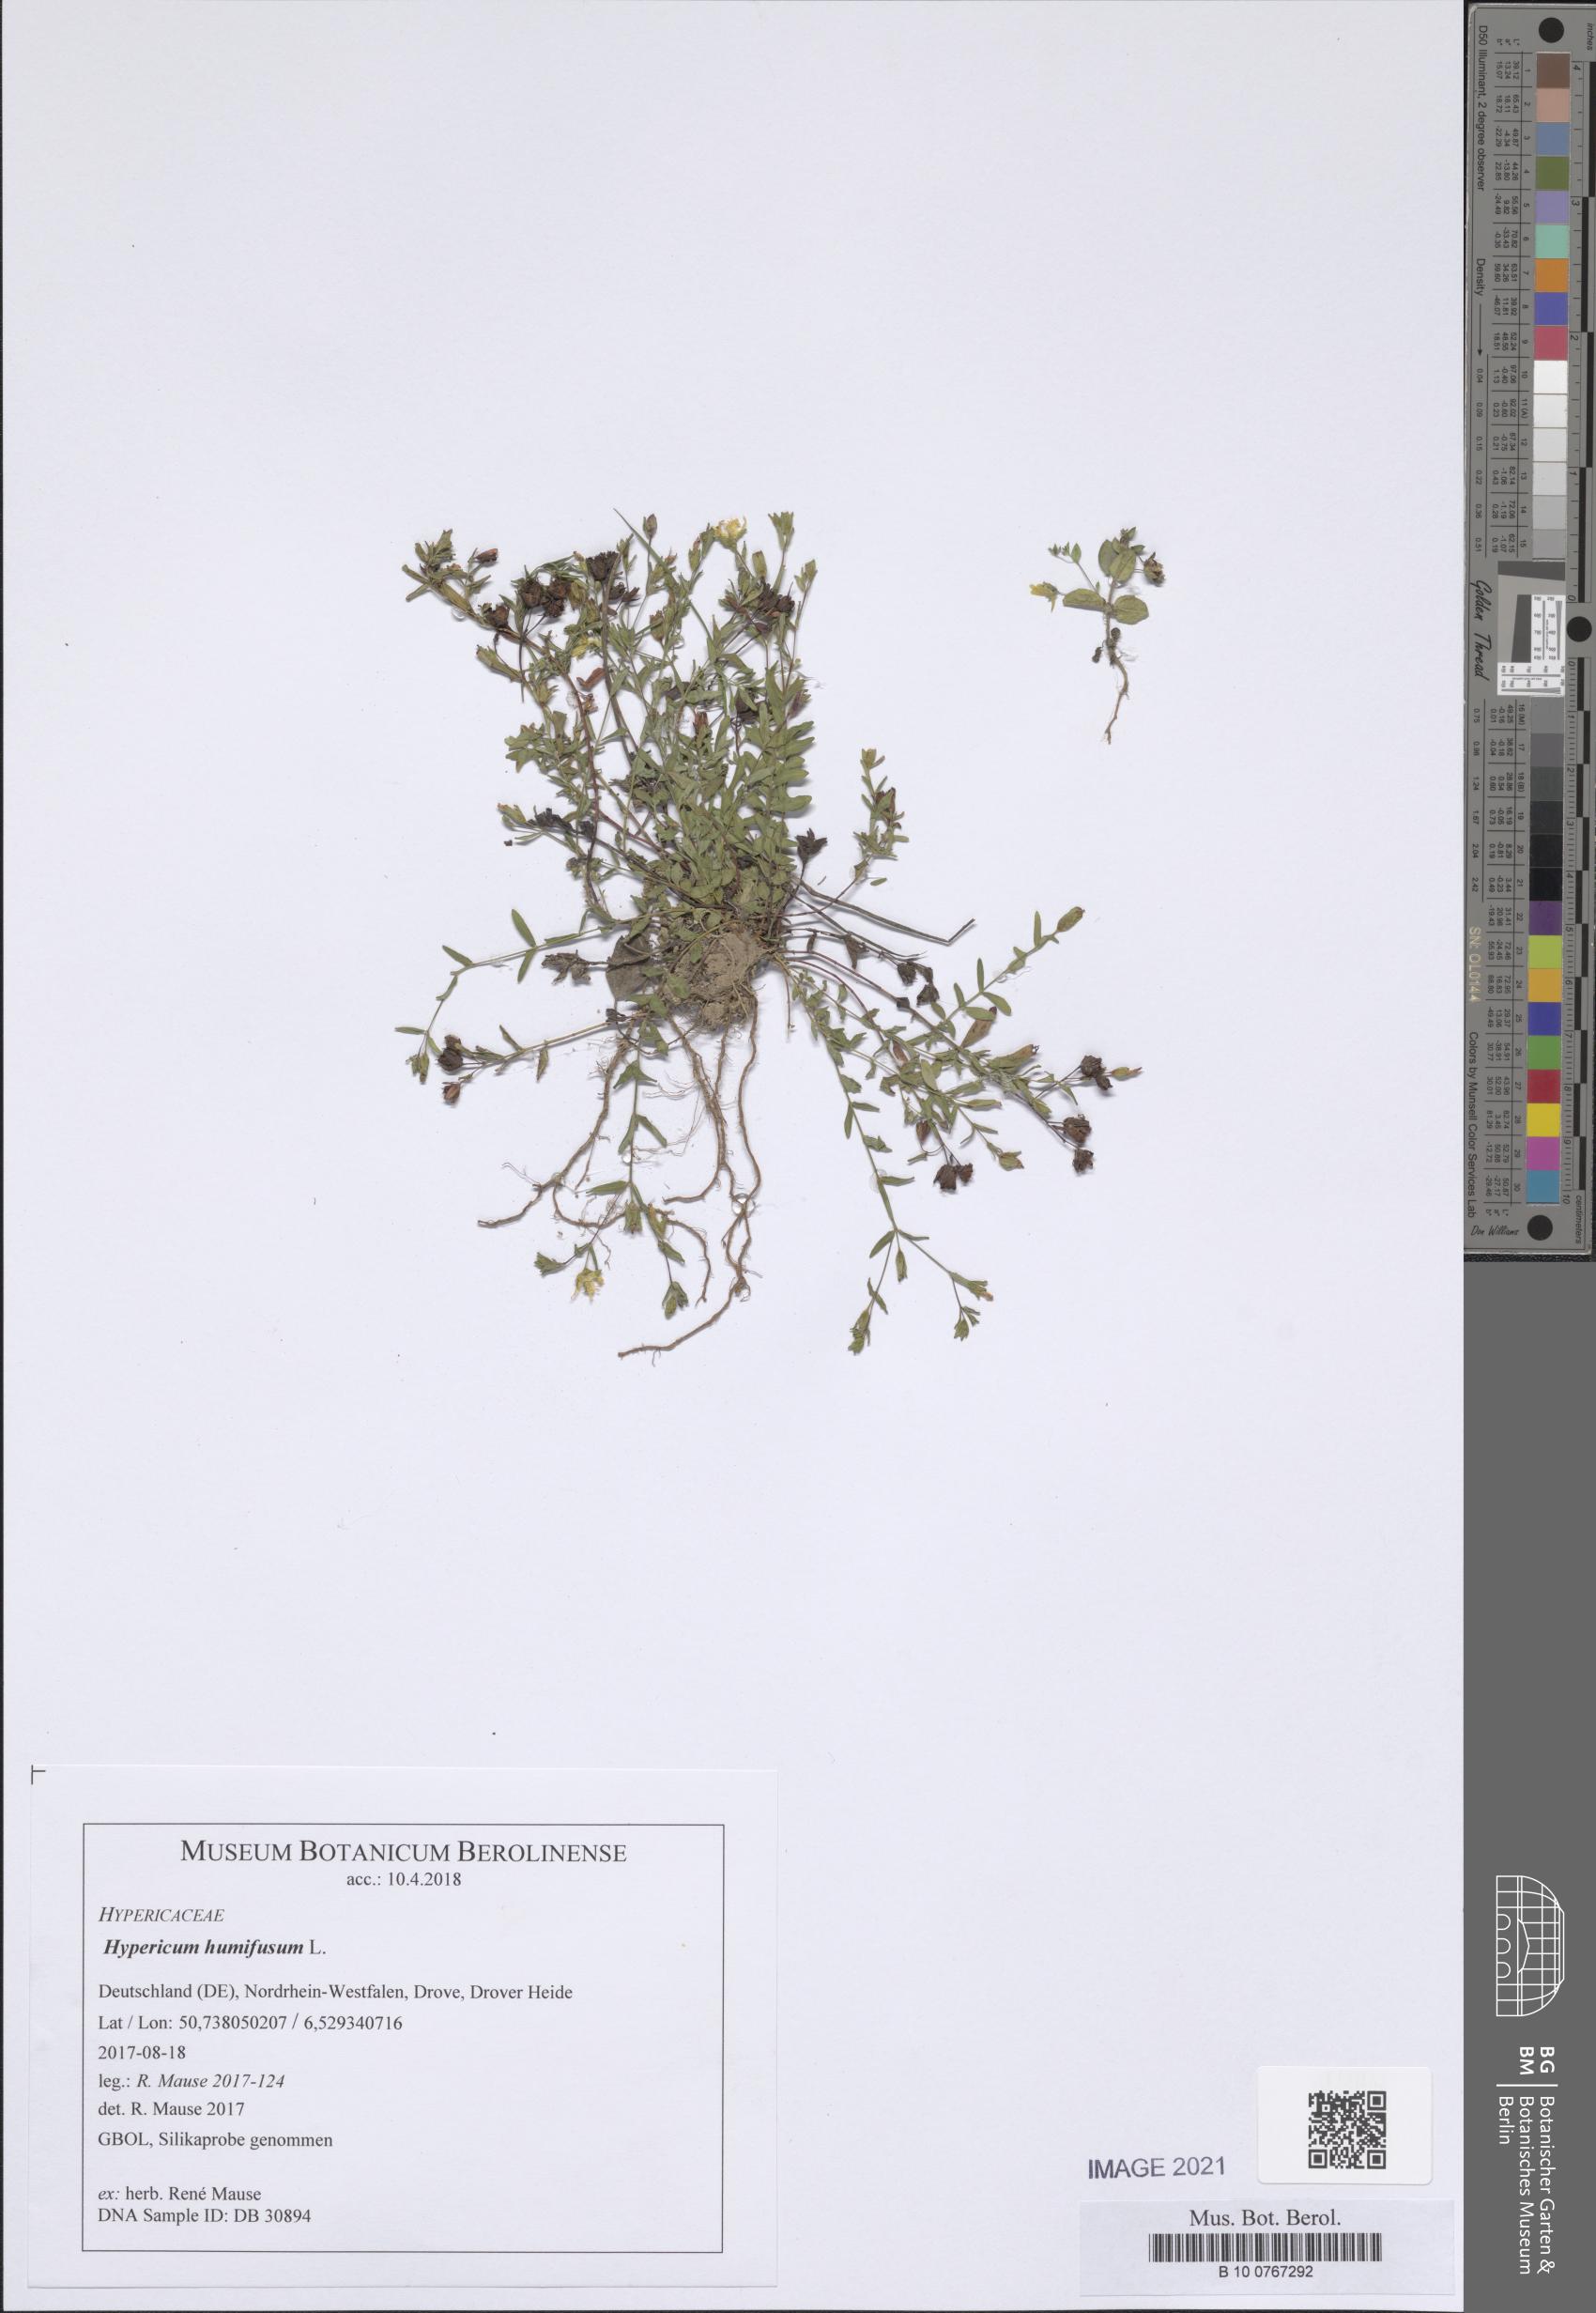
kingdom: Plantae
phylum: Tracheophyta
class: Magnoliopsida
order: Malpighiales
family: Hypericaceae
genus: Hypericum
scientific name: Hypericum humifusum
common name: Trailing st. john's-wort
